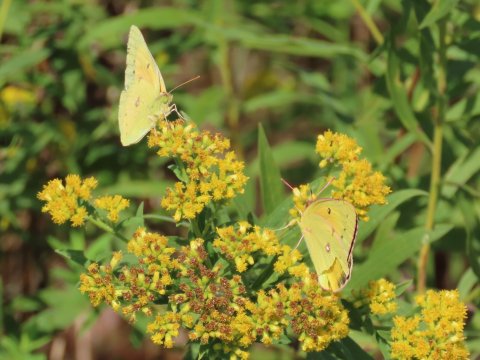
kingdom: Animalia
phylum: Arthropoda
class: Insecta
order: Lepidoptera
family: Pieridae
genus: Colias
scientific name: Colias eurytheme
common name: Orange Sulphur
